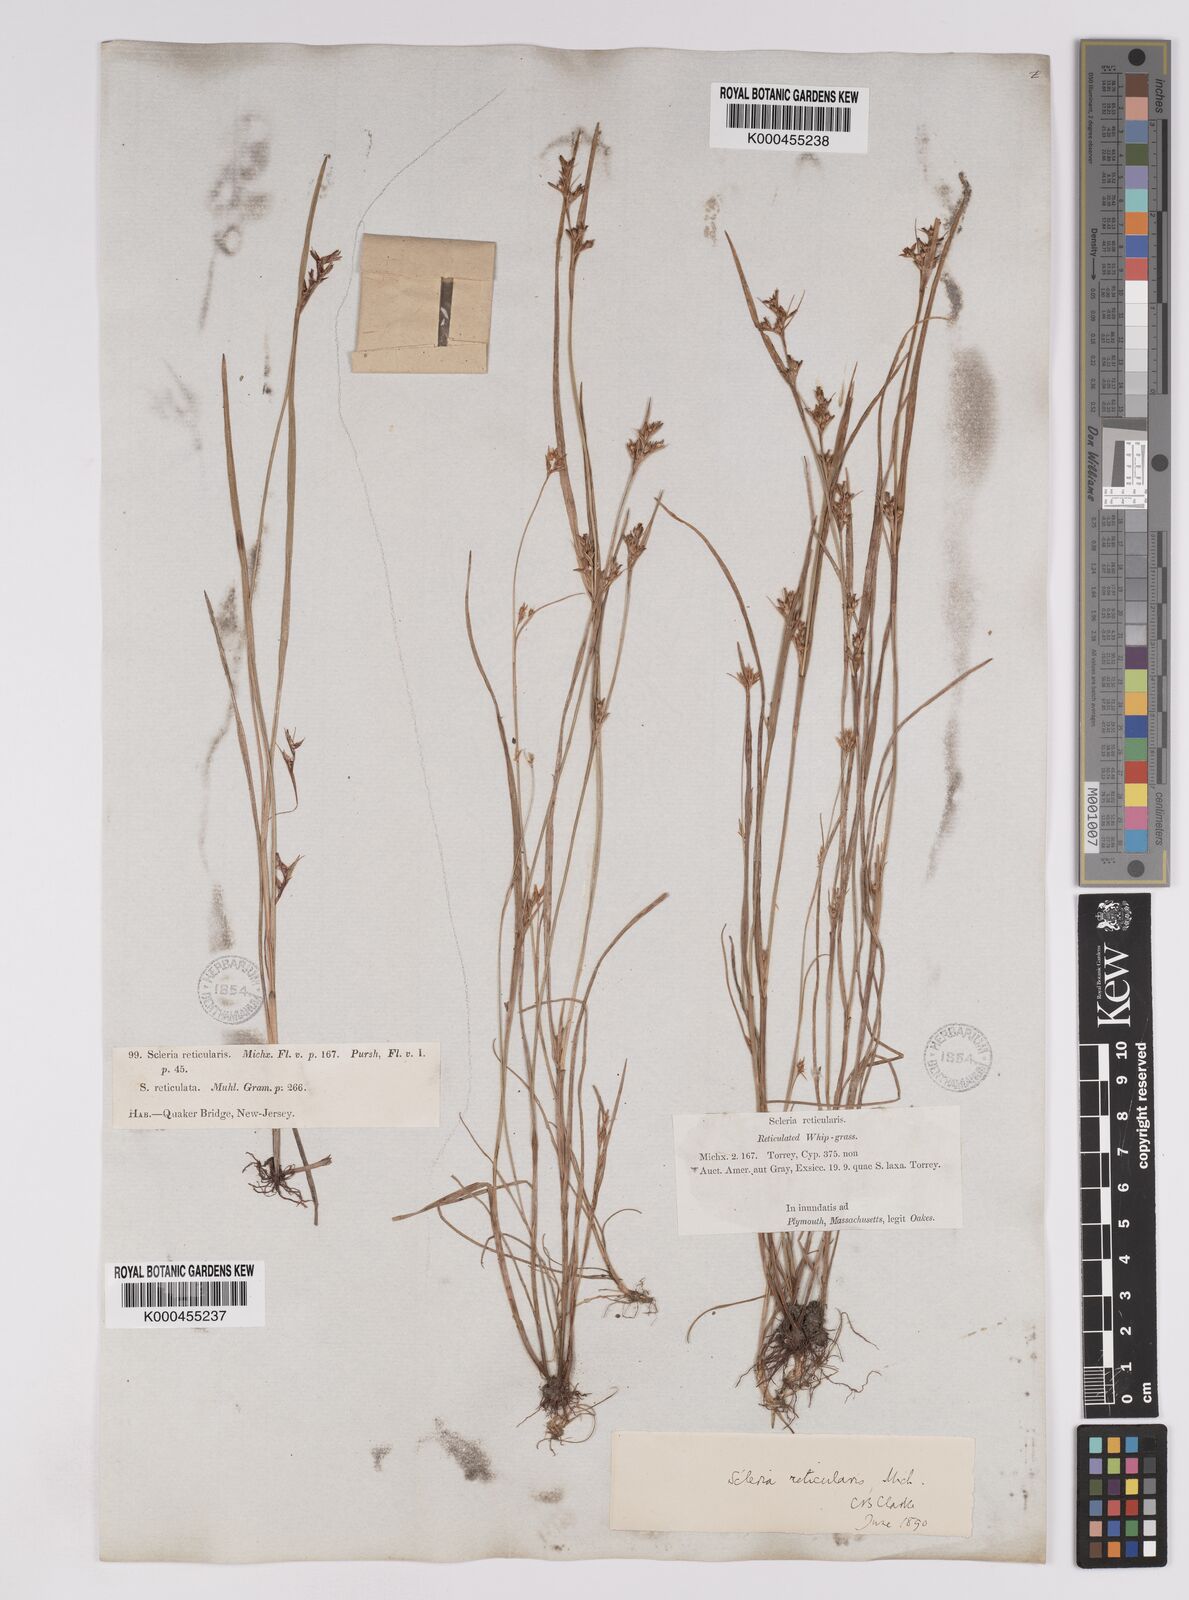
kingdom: Plantae
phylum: Tracheophyta
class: Liliopsida
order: Poales
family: Cyperaceae
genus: Scleria
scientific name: Scleria
